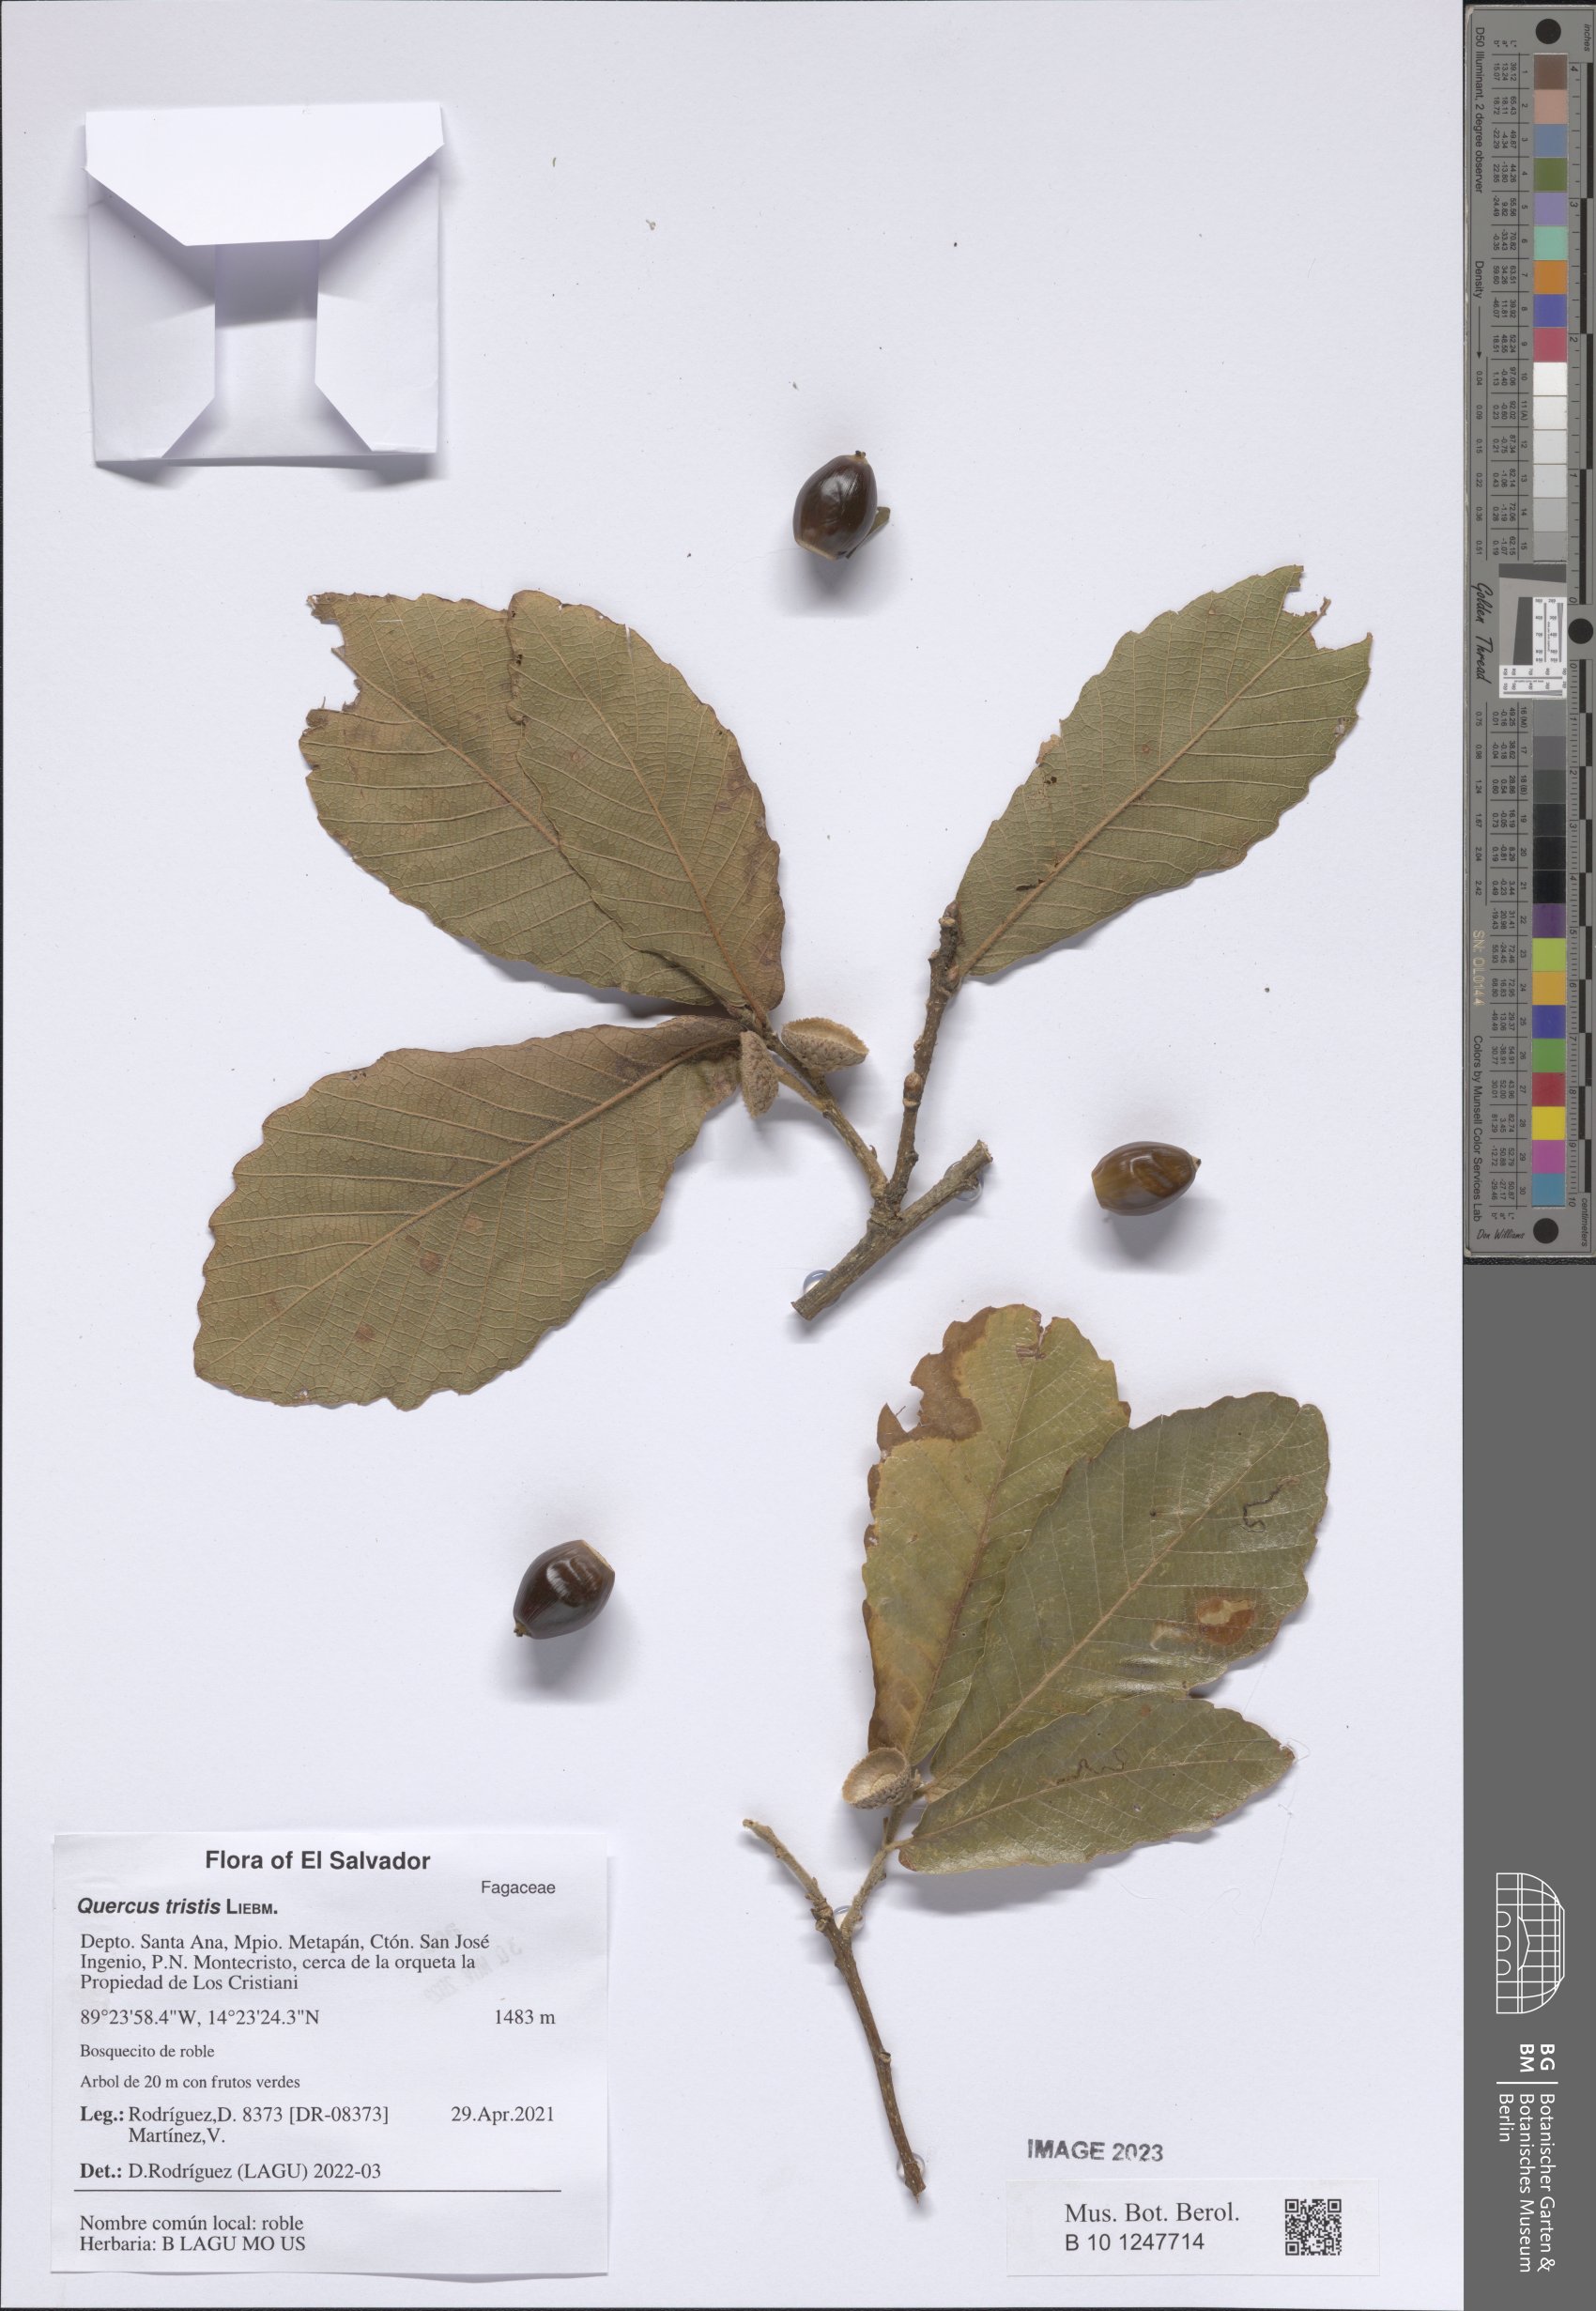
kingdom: Plantae
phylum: Tracheophyta
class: Magnoliopsida
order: Fagales
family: Fagaceae
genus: Quercus
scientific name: Quercus castanea
